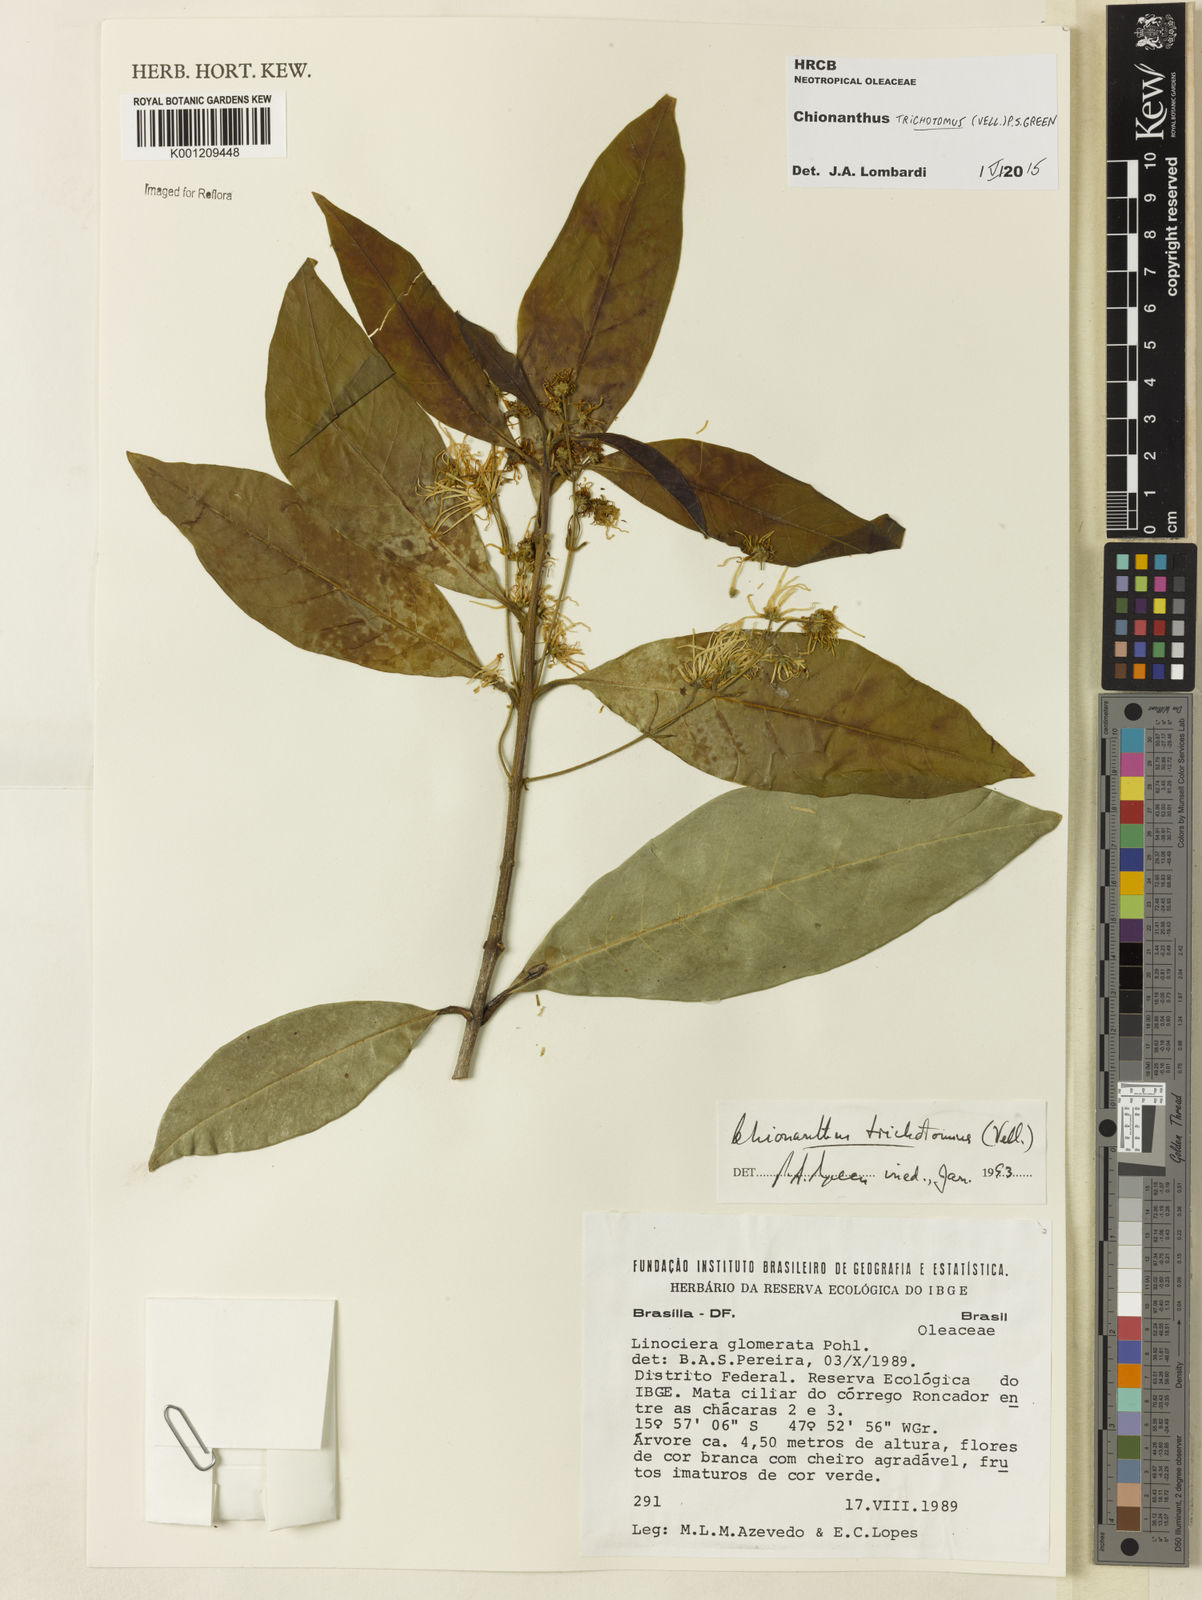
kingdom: Plantae
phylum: Tracheophyta
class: Magnoliopsida
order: Lamiales
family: Oleaceae
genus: Chionanthus
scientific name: Chionanthus trichotomus
